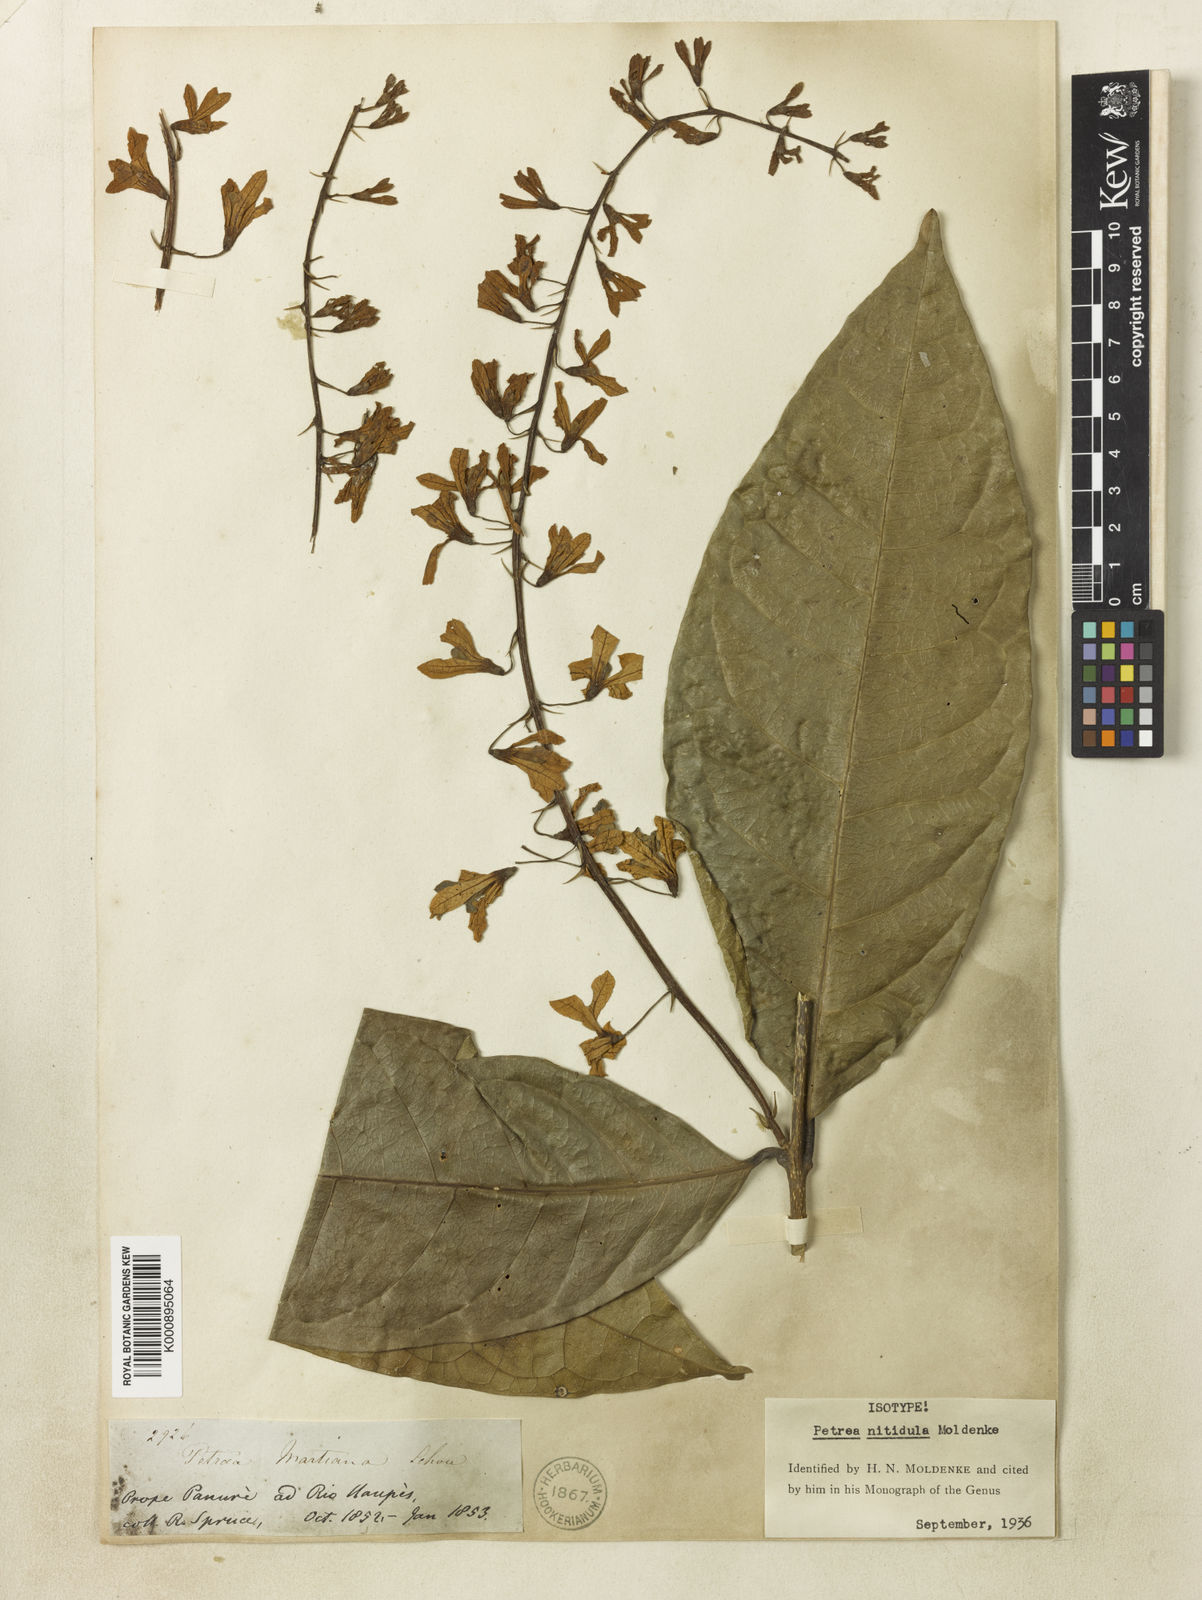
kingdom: Plantae
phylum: Tracheophyta
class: Magnoliopsida
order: Lamiales
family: Verbenaceae
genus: Petrea
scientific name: Petrea volubilis
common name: Queen's-wreath
